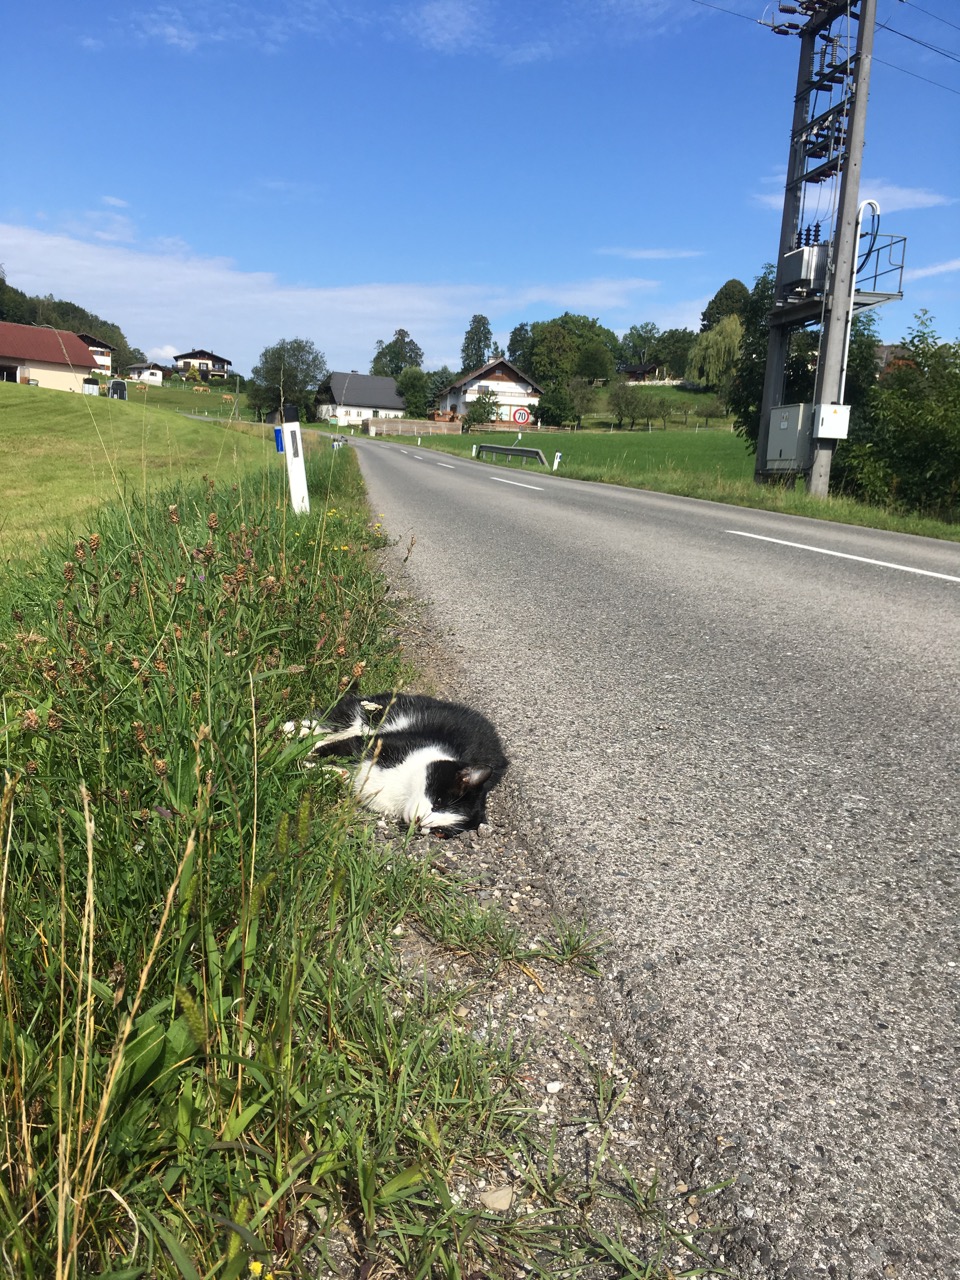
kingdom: Animalia
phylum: Chordata
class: Mammalia
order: Carnivora
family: Felidae
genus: Felis
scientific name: Felis catus
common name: Domestic cat
